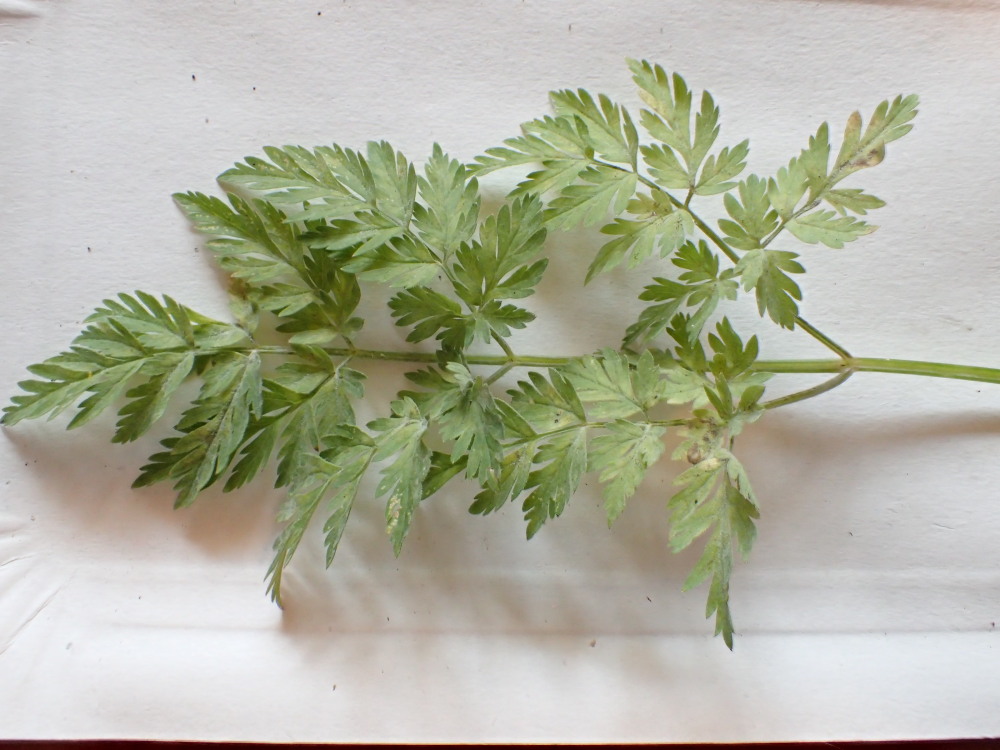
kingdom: Fungi
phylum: Ascomycota
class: Leotiomycetes
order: Helotiales
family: Erysiphaceae
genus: Erysiphe
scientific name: Erysiphe heraclei
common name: skærmplante-meldug
